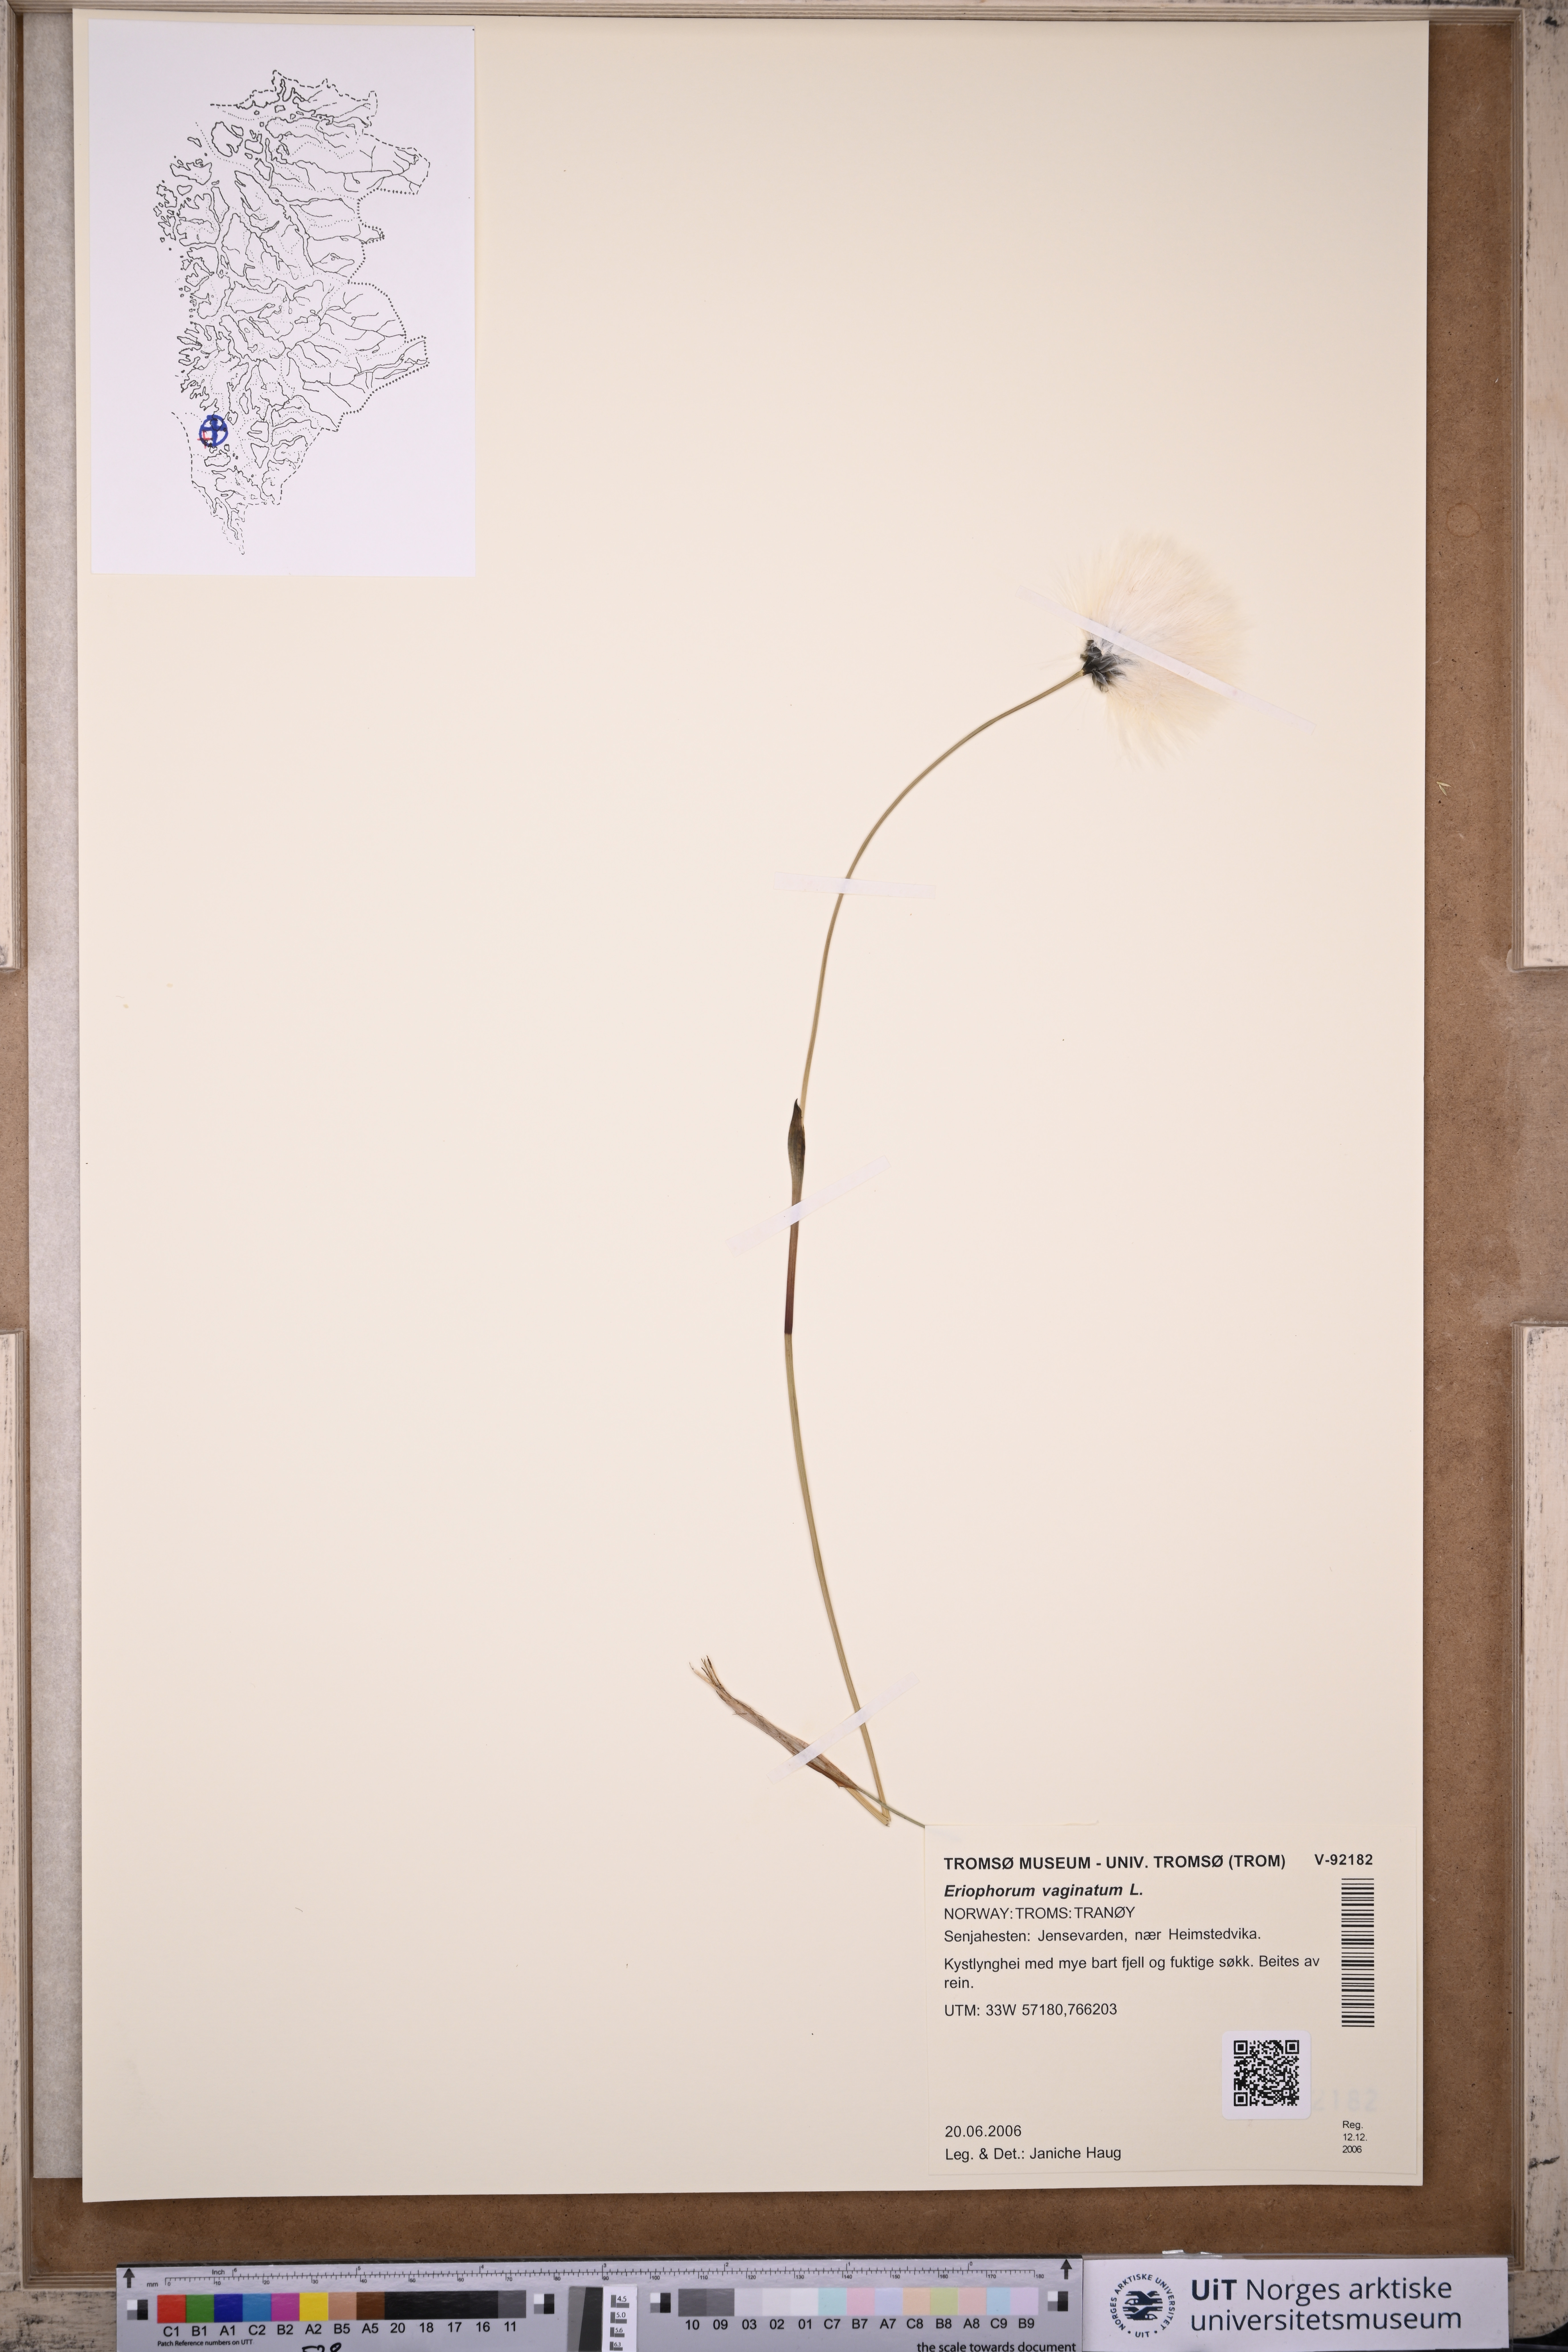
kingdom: Plantae
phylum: Tracheophyta
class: Liliopsida
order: Poales
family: Cyperaceae
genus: Eriophorum
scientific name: Eriophorum vaginatum
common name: Hare's-tail cottongrass
